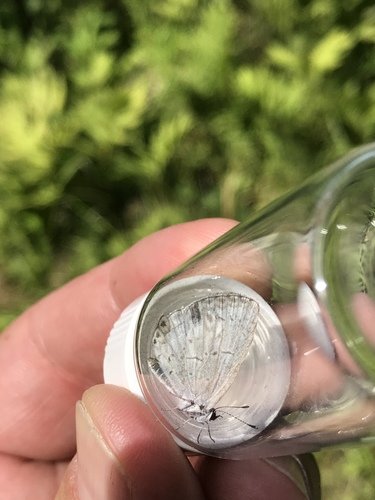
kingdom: Animalia
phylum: Arthropoda
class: Insecta
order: Lepidoptera
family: Lycaenidae
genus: Cyaniris
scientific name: Cyaniris neglecta
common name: Summer Azure
